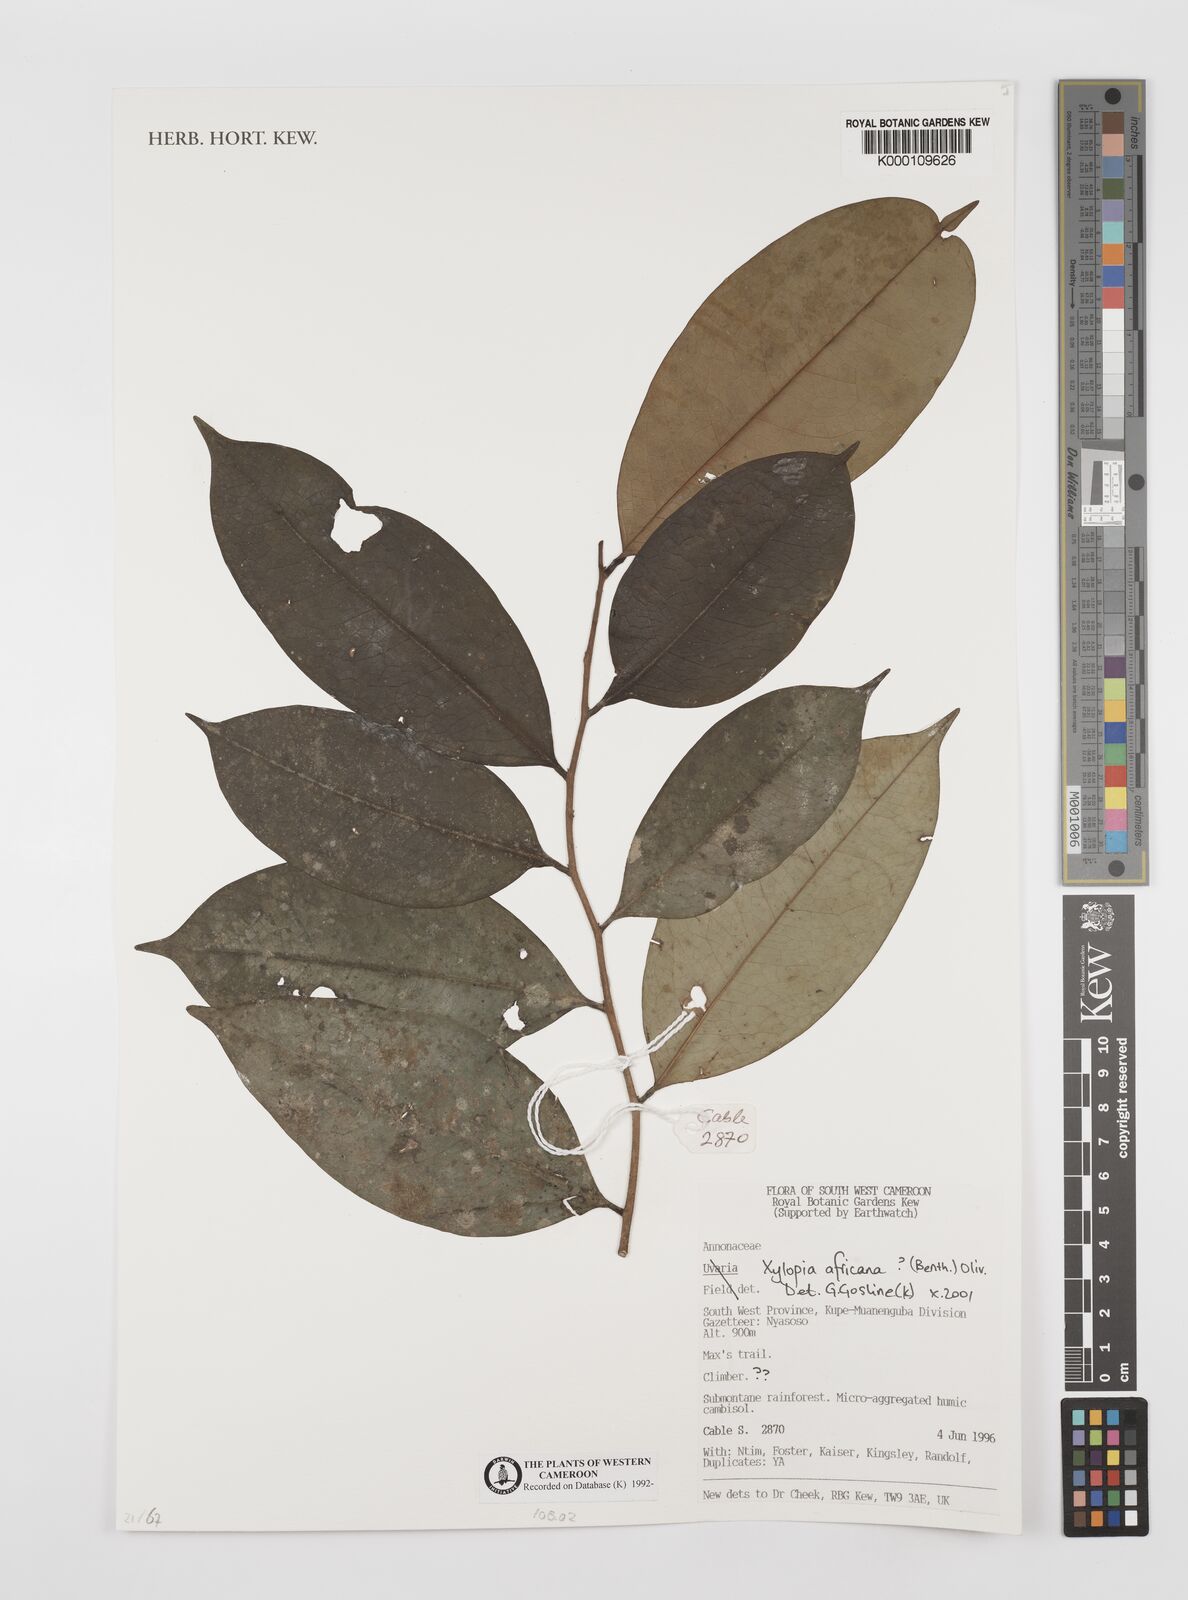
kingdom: Plantae
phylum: Tracheophyta
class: Magnoliopsida
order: Magnoliales
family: Annonaceae
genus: Xylopia
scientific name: Xylopia africana
